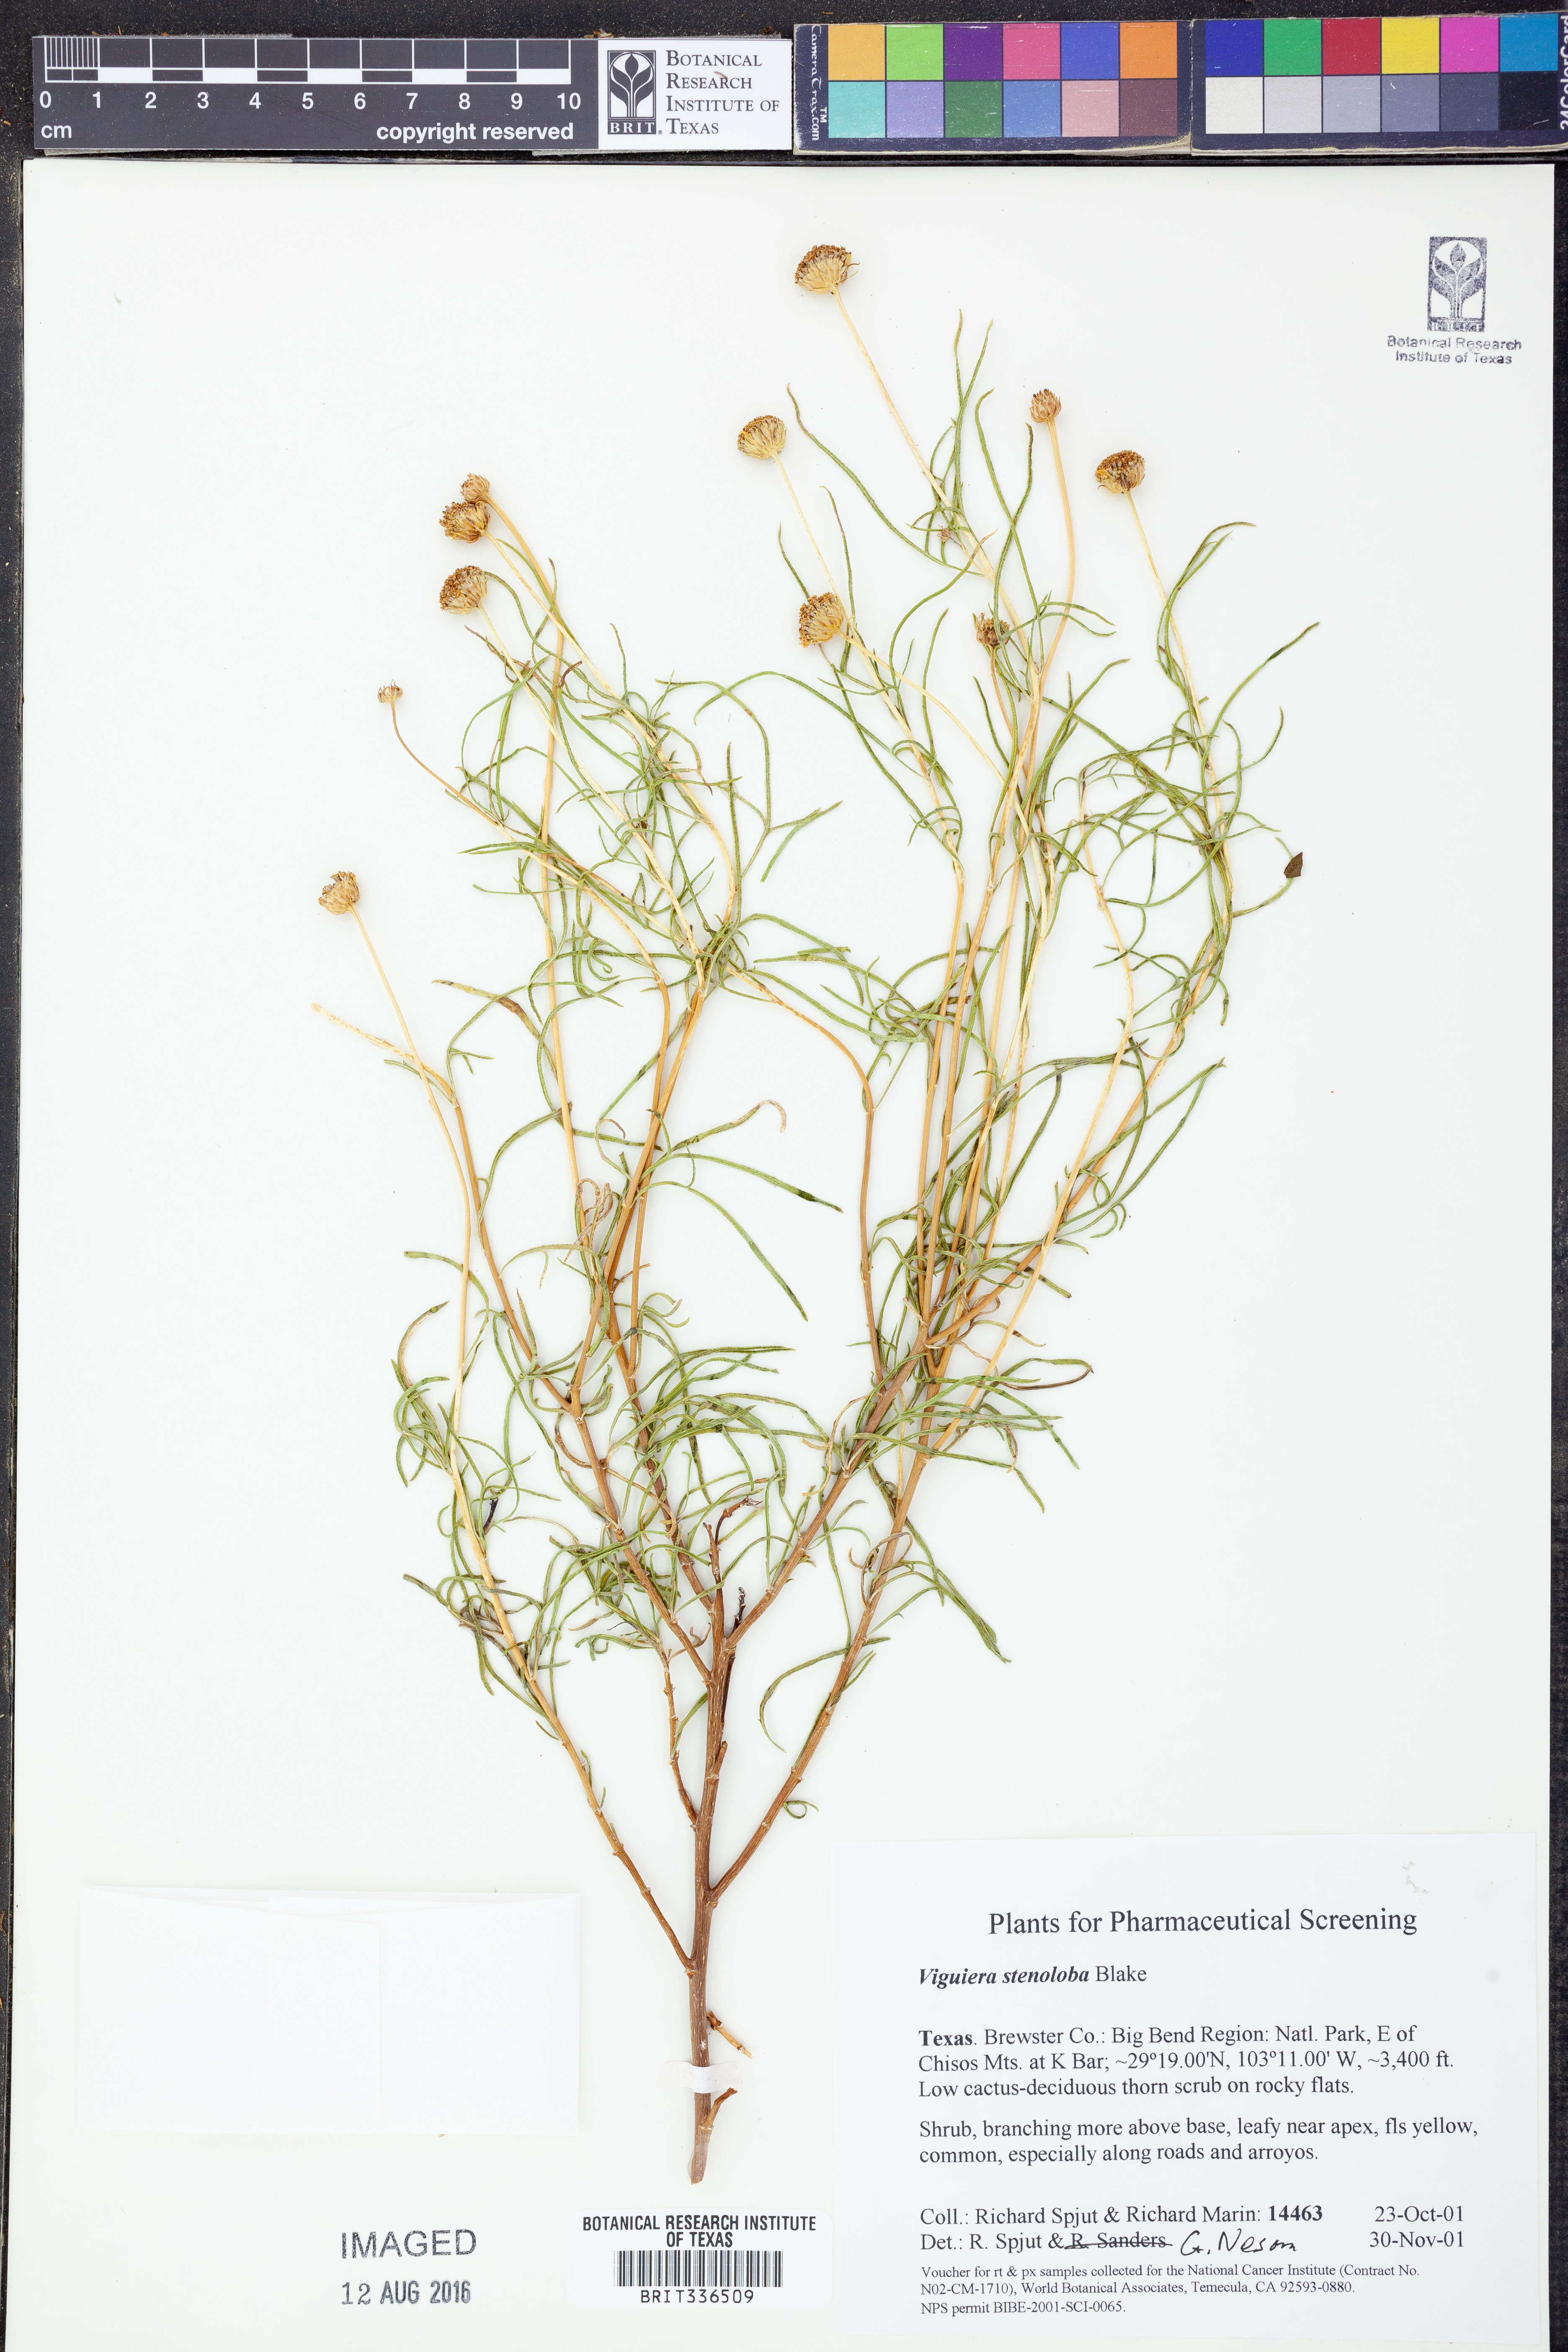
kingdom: Plantae
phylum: Tracheophyta
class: Magnoliopsida
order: Asterales
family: Asteraceae
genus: Sidneya
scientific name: Sidneya tenuifolia
